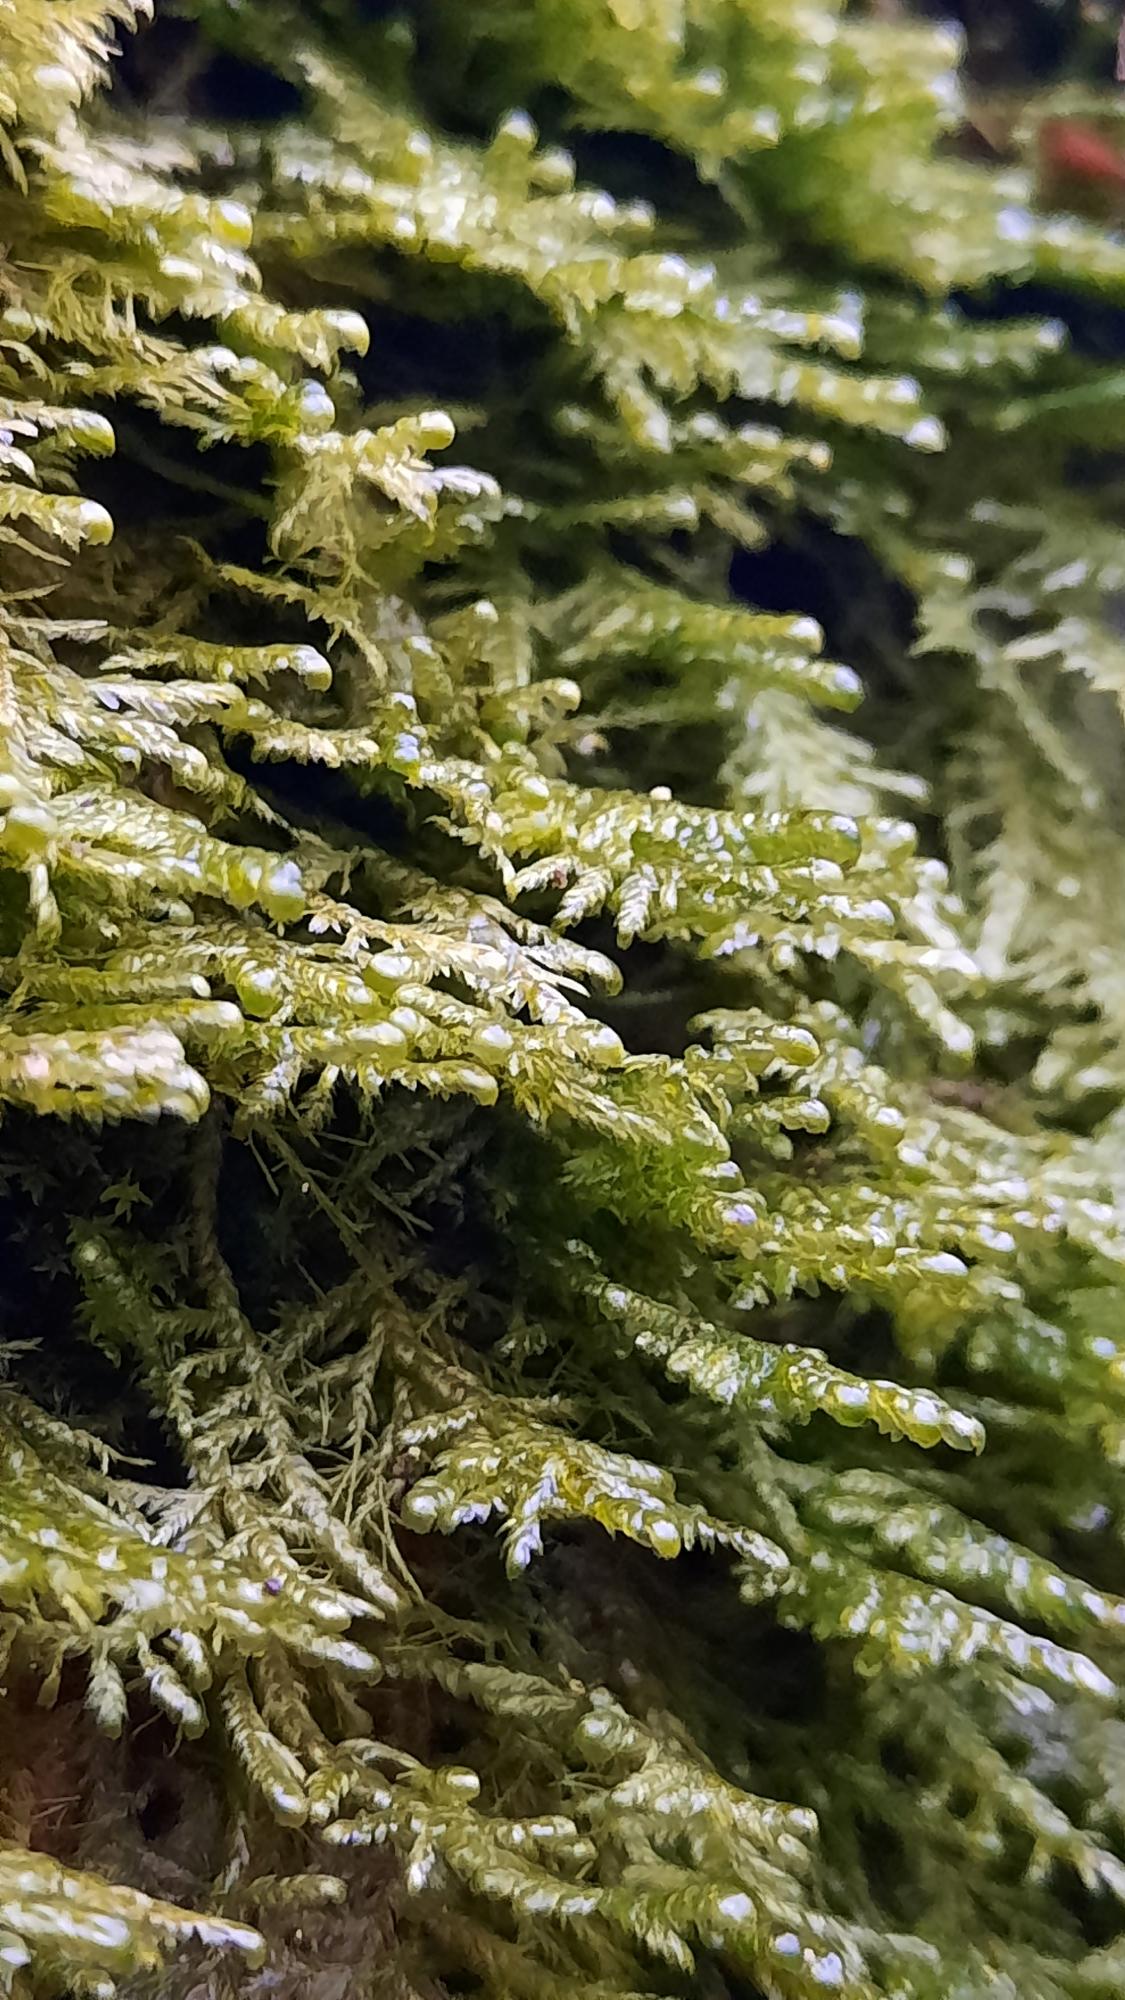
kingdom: Plantae
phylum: Bryophyta
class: Bryopsida
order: Hypnales
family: Neckeraceae
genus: Alleniella
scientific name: Alleniella complanata
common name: Almindelig fladmos
